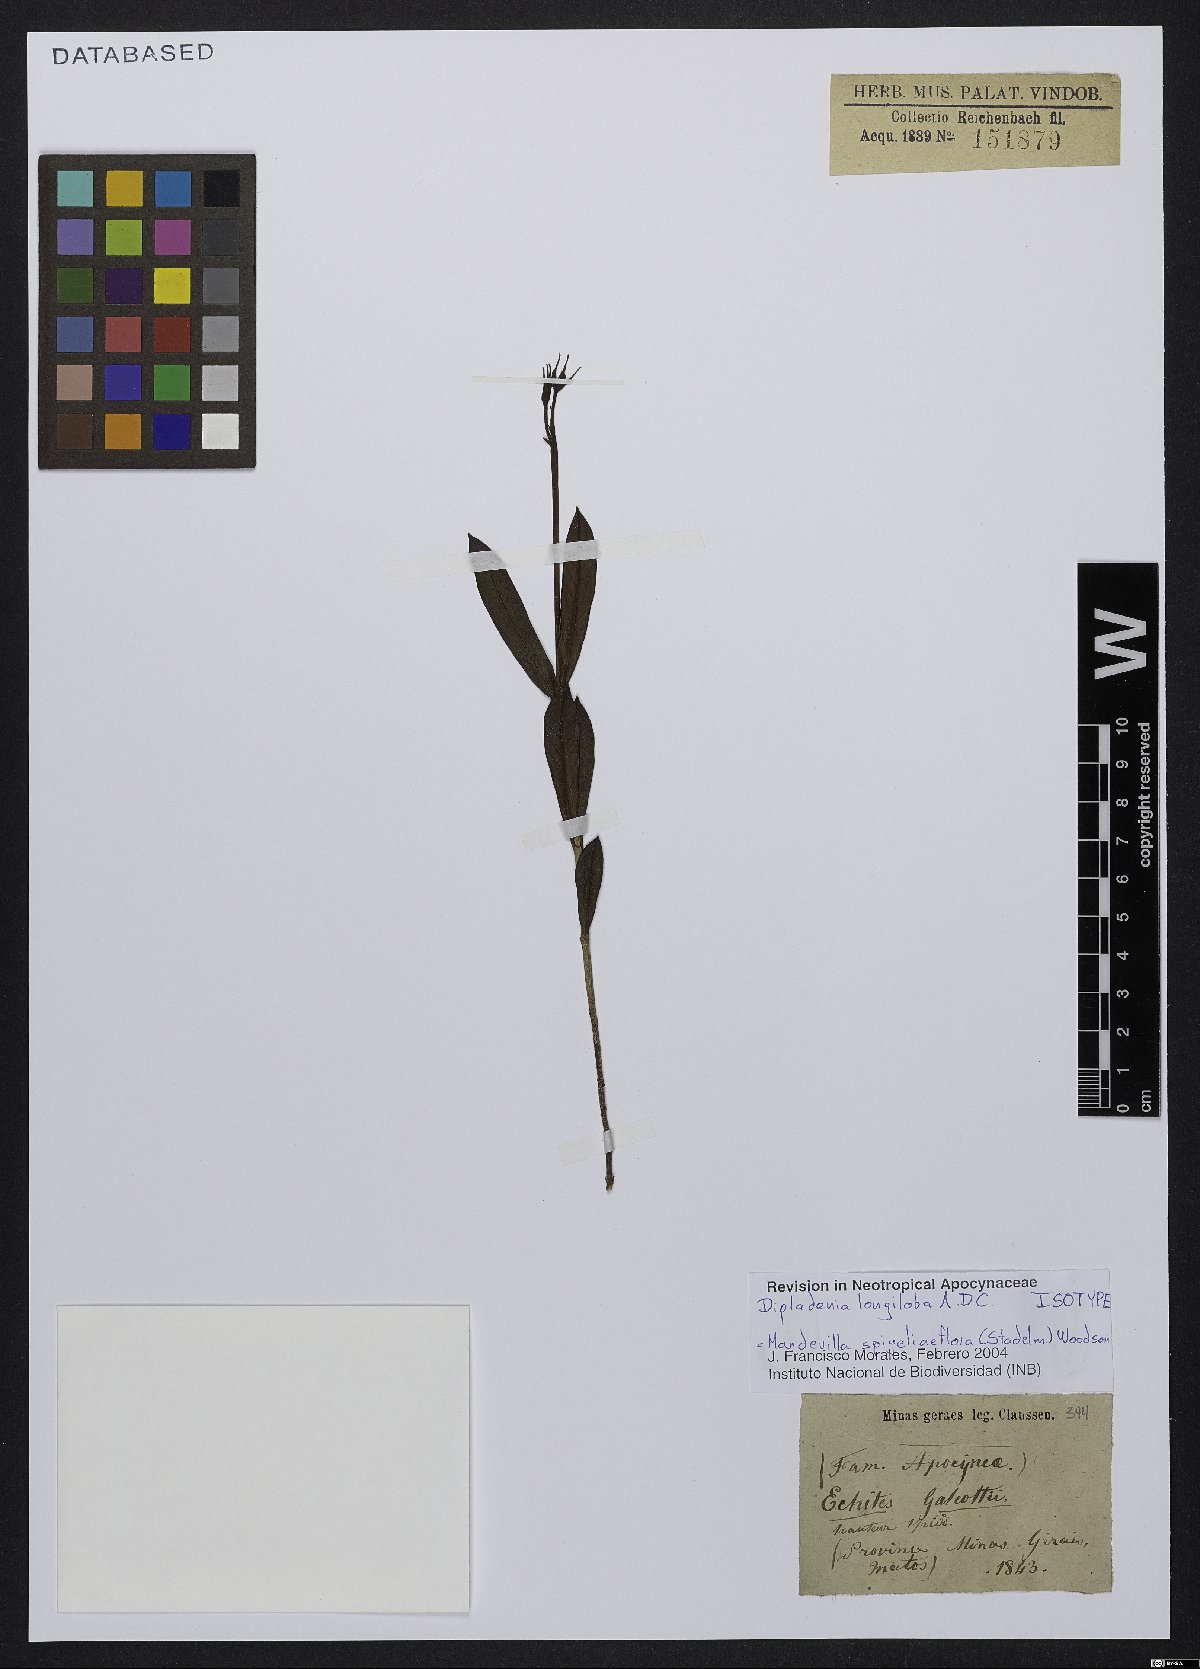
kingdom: Plantae
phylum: Tracheophyta
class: Magnoliopsida
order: Gentianales
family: Apocynaceae
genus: Mandevilla
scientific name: Mandevilla spigeliiflora
